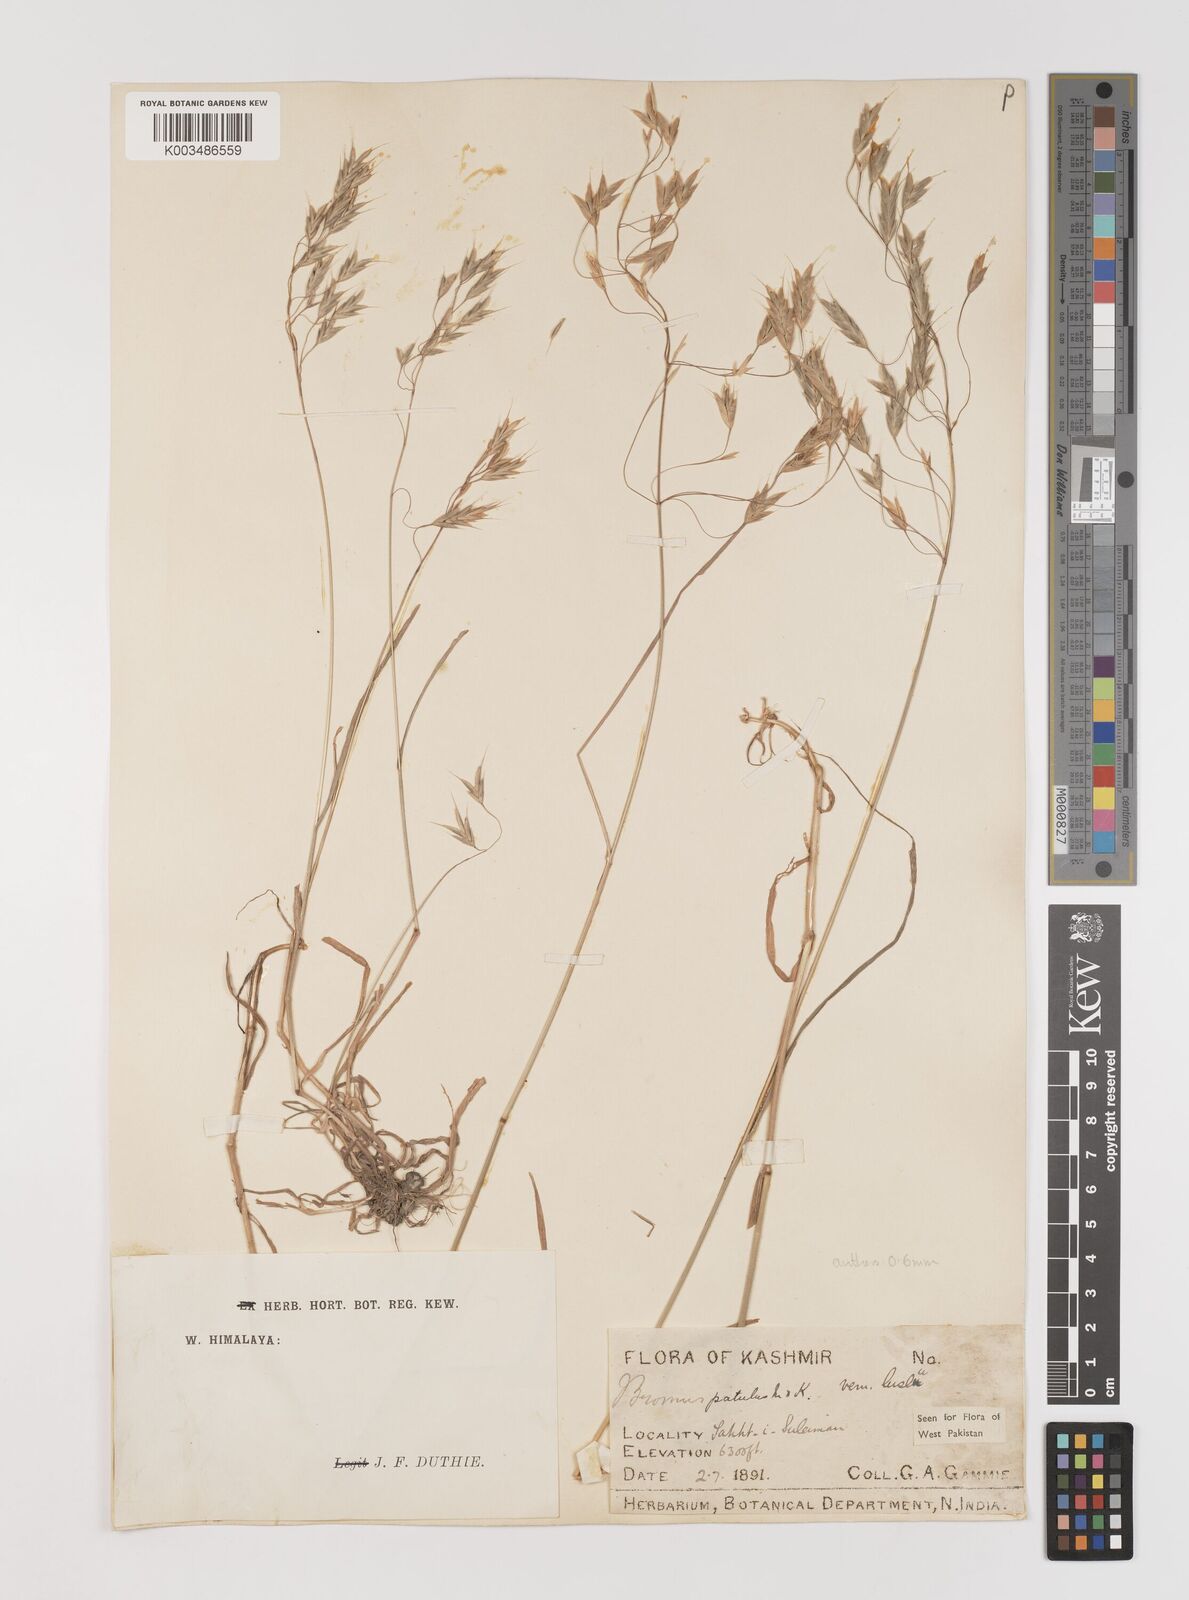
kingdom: Plantae
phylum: Tracheophyta
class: Liliopsida
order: Poales
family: Poaceae
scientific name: Poaceae
